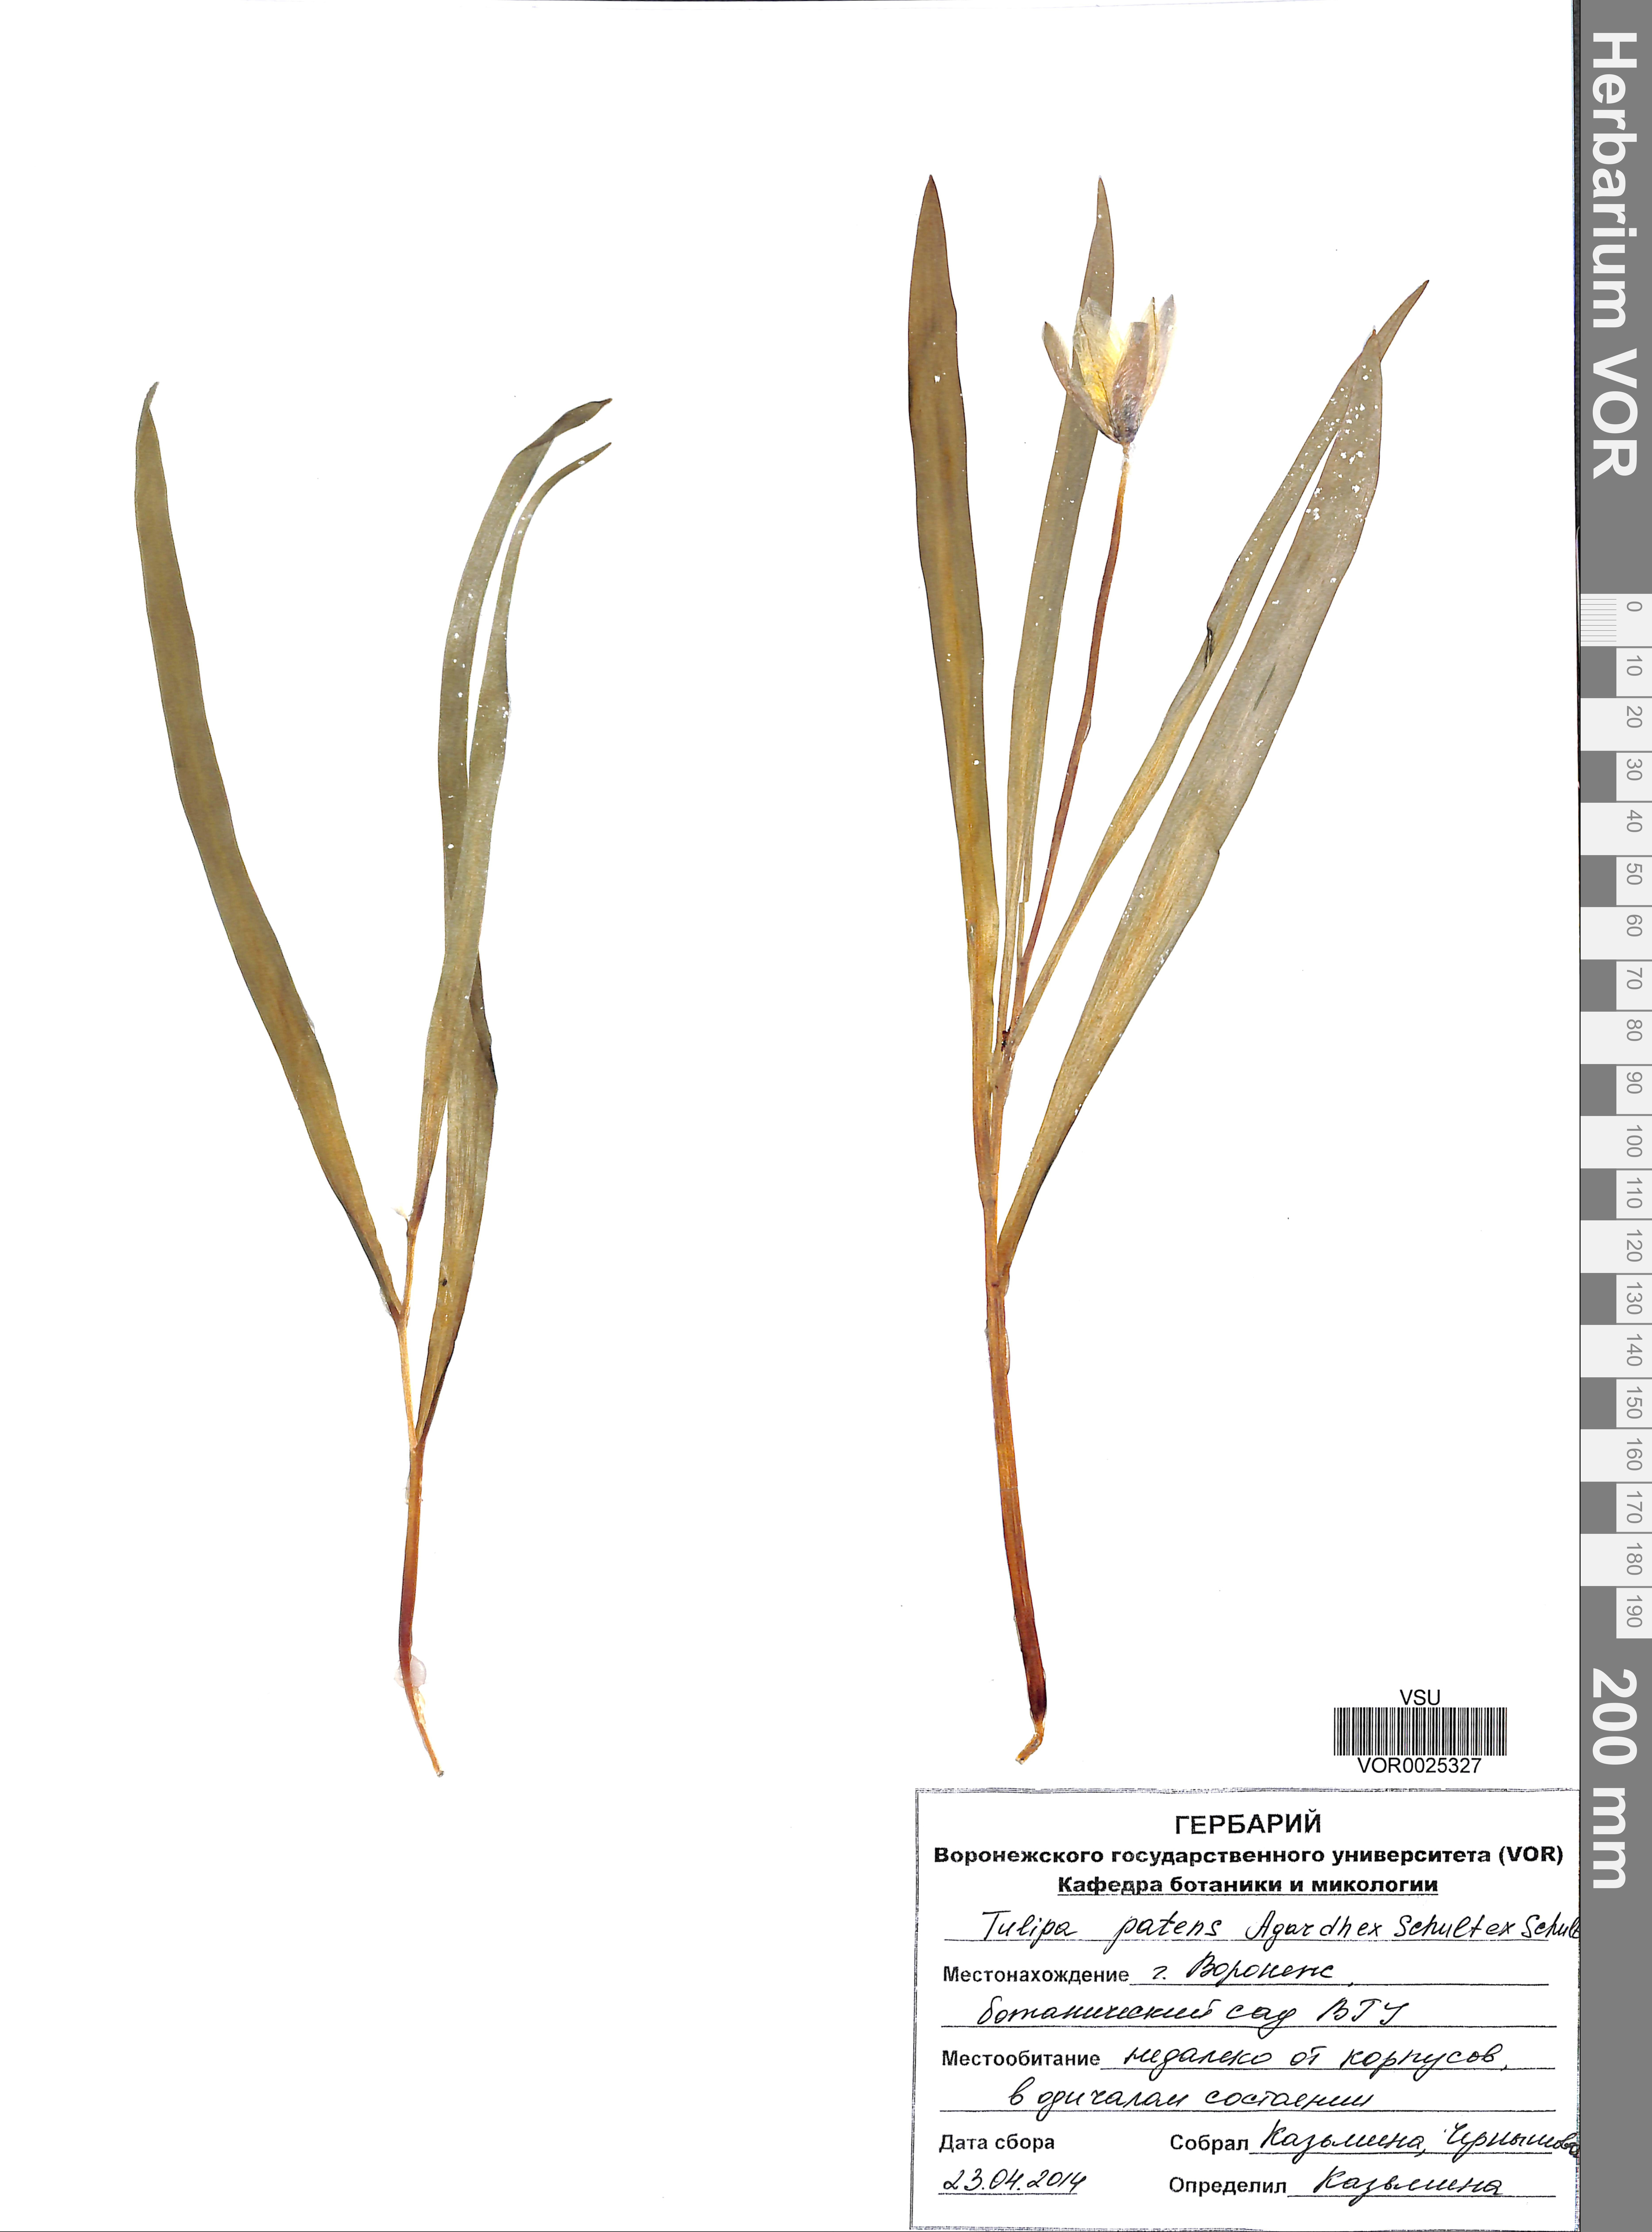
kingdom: Plantae
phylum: Tracheophyta
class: Liliopsida
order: Liliales
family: Liliaceae
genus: Tulipa
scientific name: Tulipa patens
